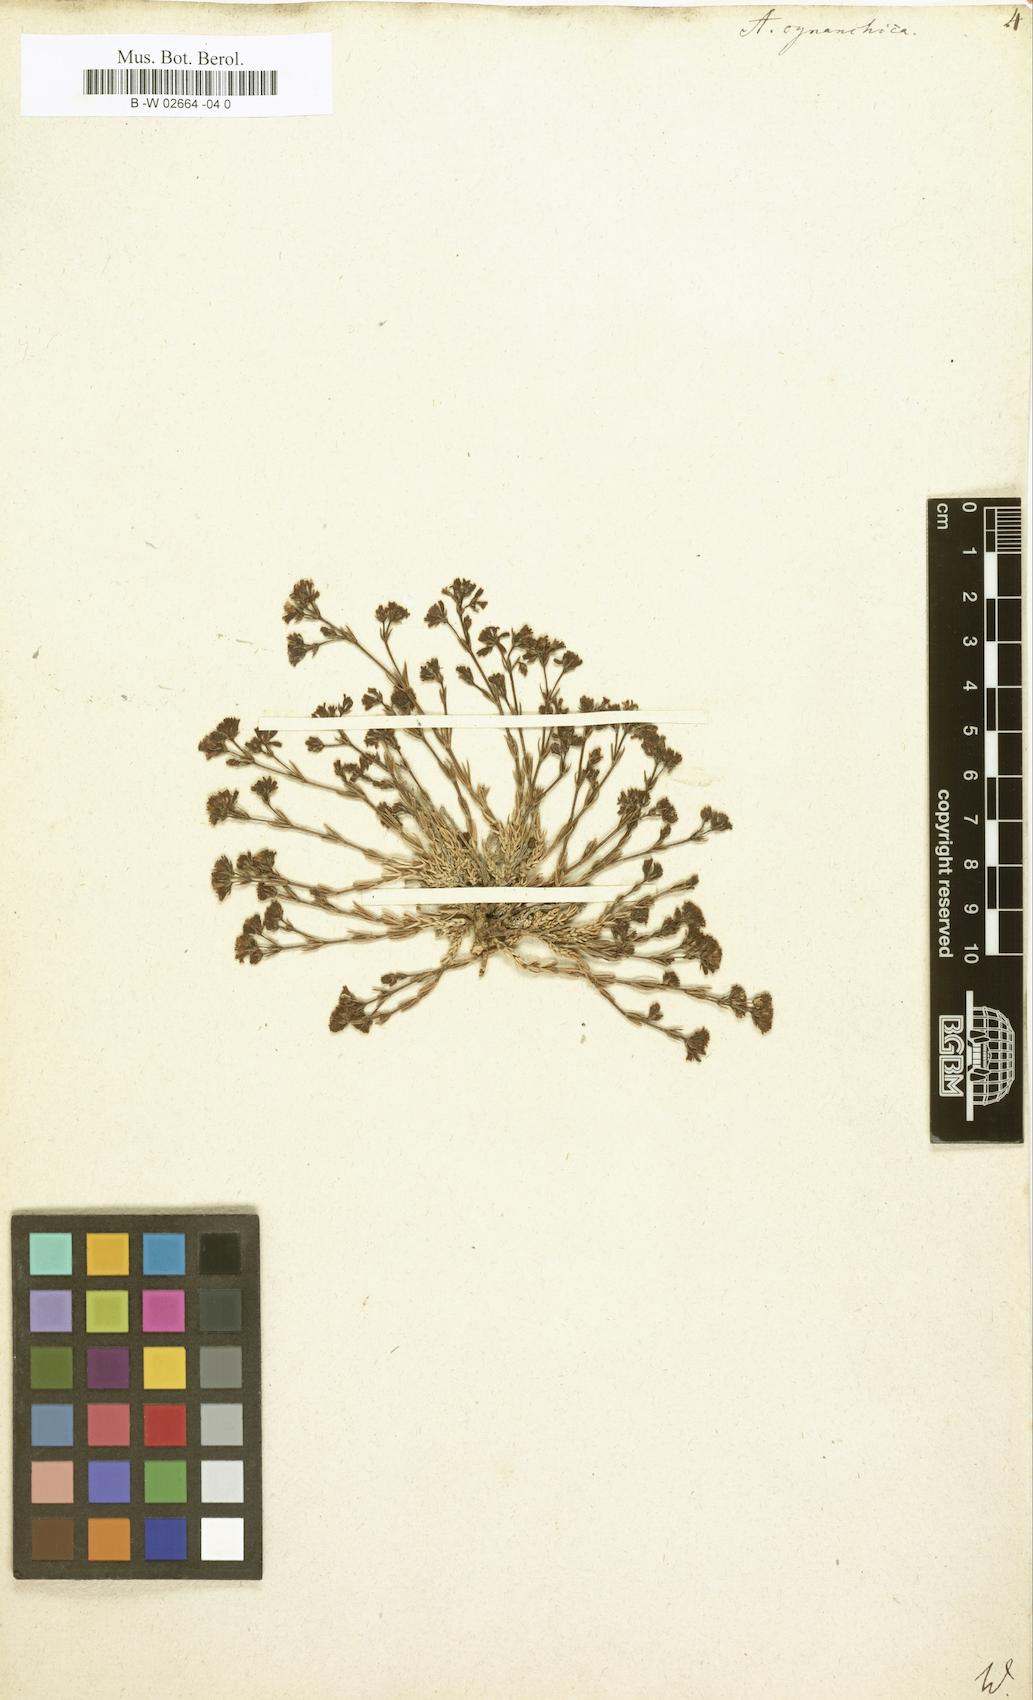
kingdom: Plantae
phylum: Tracheophyta
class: Magnoliopsida
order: Gentianales
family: Rubiaceae
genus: Cynanchica
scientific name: Cynanchica pyrenaica
